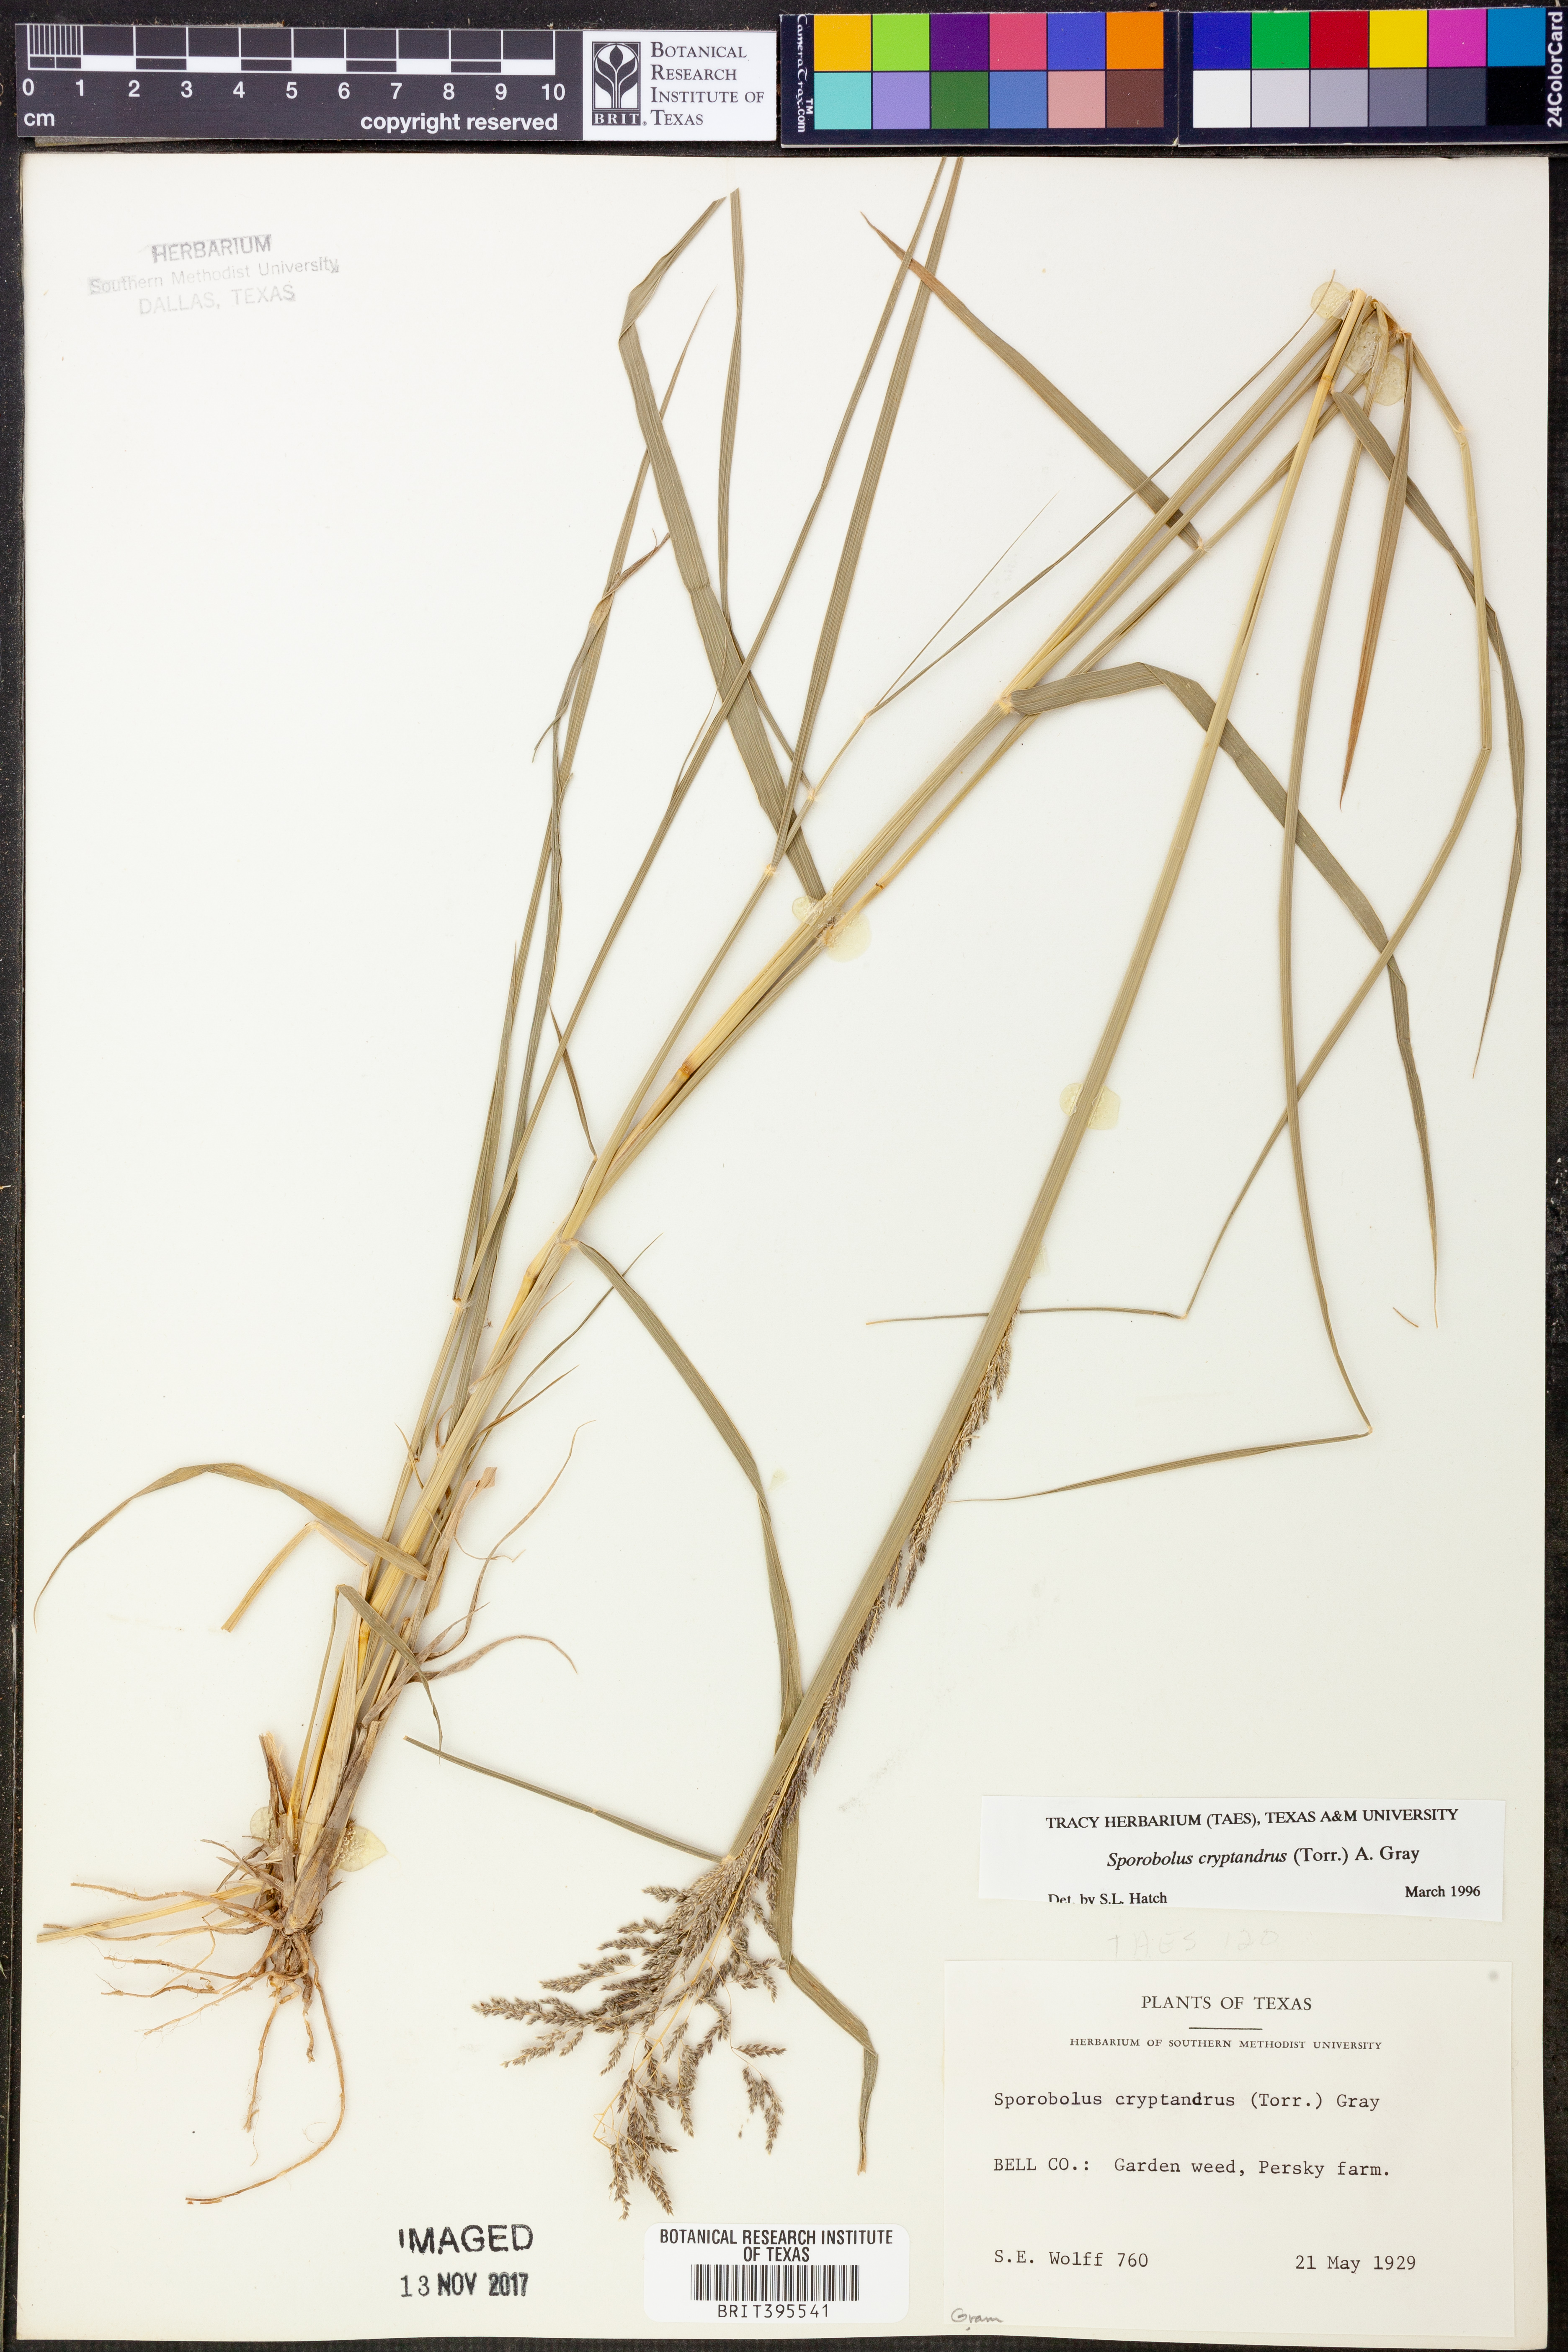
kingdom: Plantae
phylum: Tracheophyta
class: Liliopsida
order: Poales
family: Poaceae
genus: Sporobolus
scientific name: Sporobolus cryptandrus
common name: Sand dropseed
